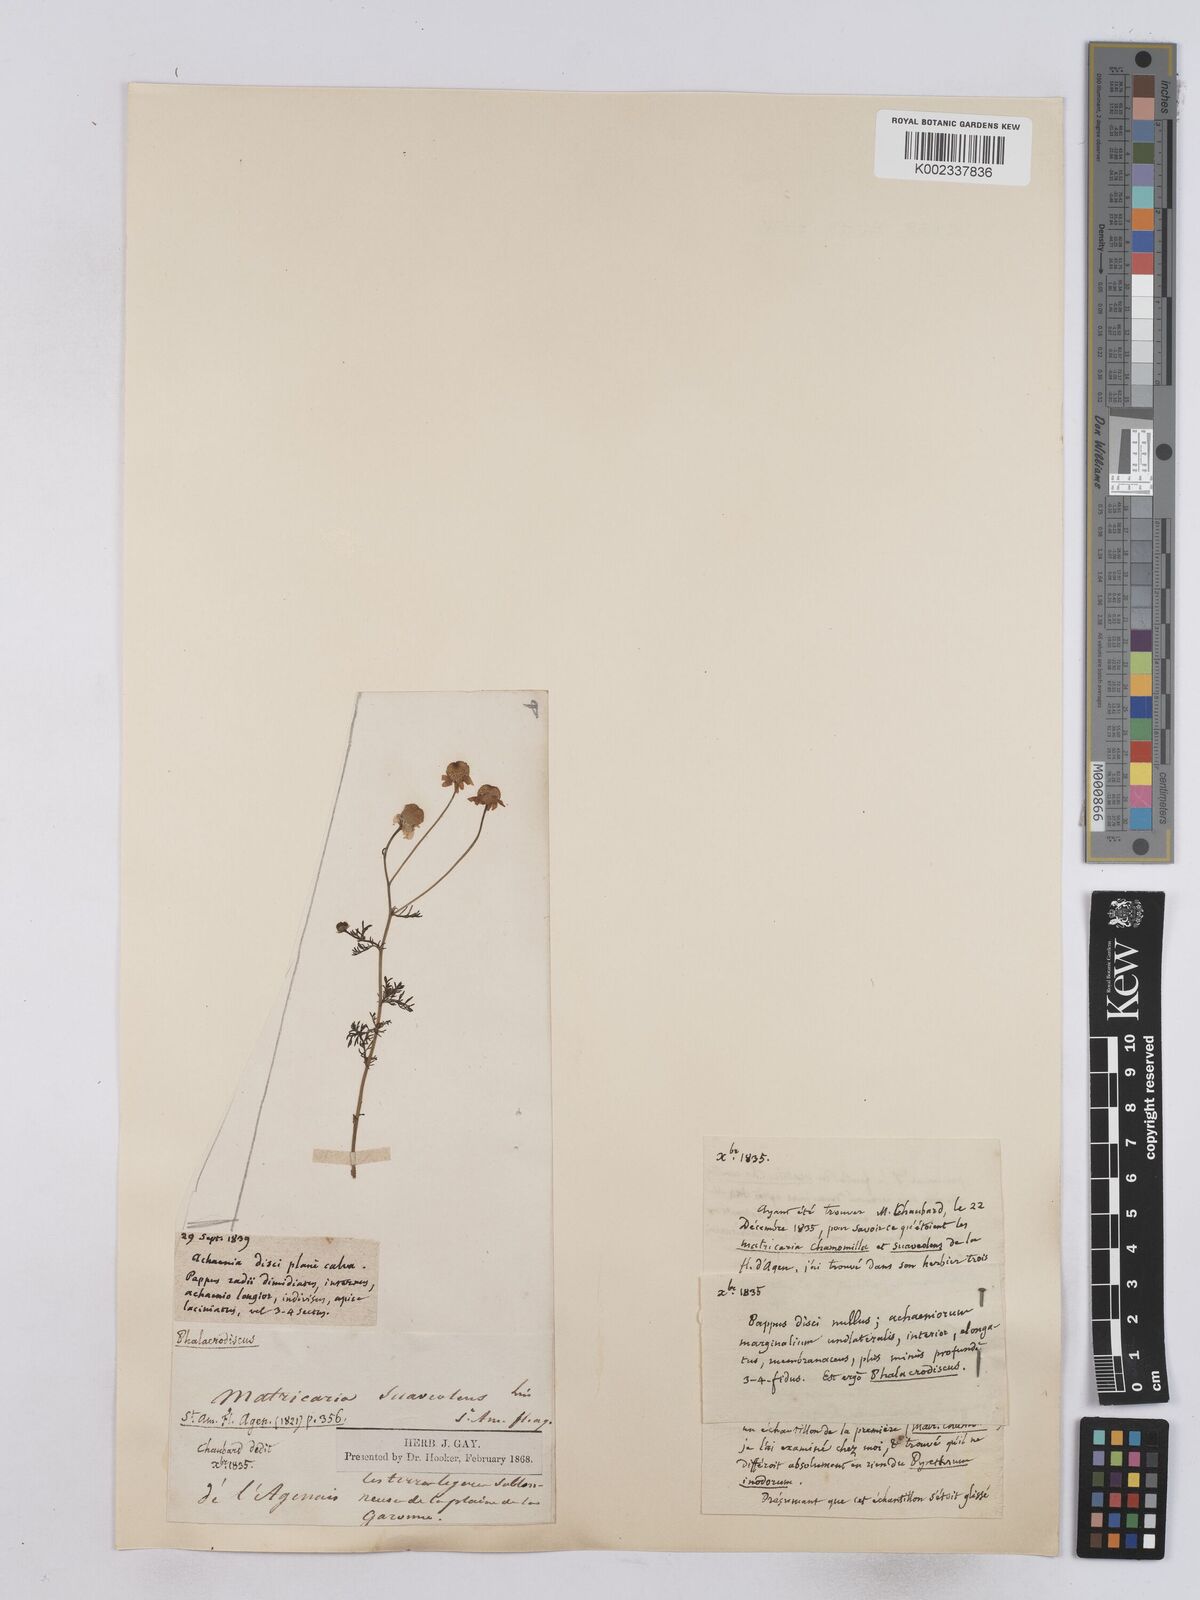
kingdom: Plantae
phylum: Tracheophyta
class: Magnoliopsida
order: Asterales
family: Asteraceae
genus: Matricaria
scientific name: Matricaria chamomilla
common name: Scented mayweed
